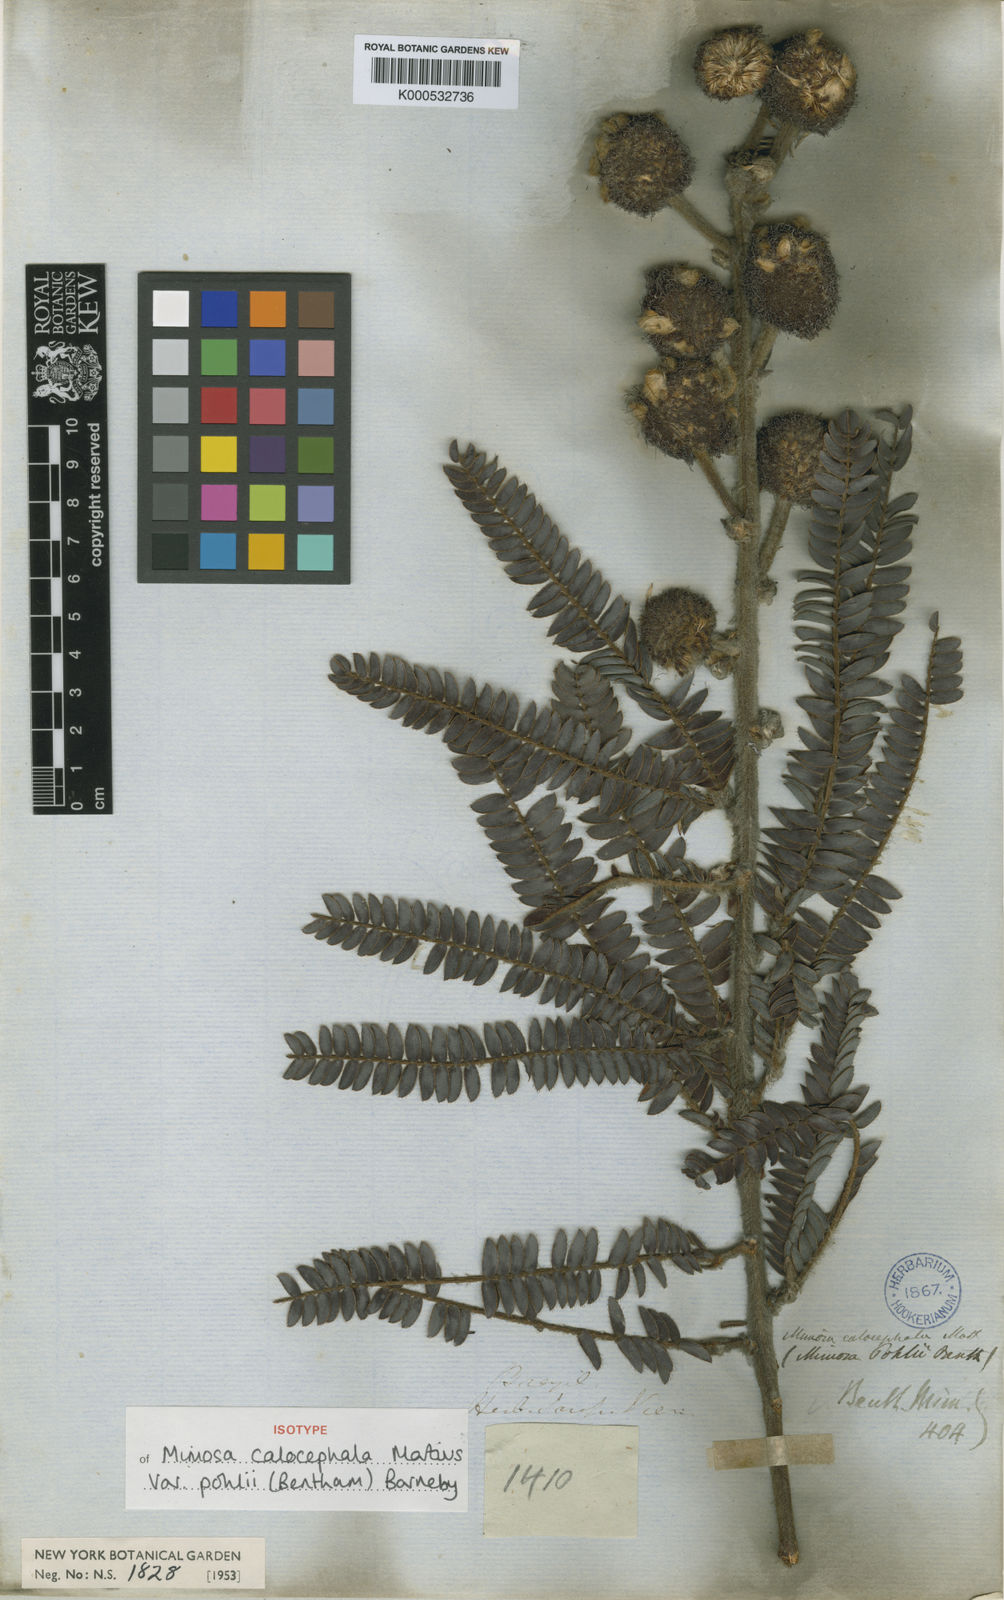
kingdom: Plantae
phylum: Tracheophyta
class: Magnoliopsida
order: Fabales
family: Fabaceae
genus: Mimosa
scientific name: Mimosa calocephala
